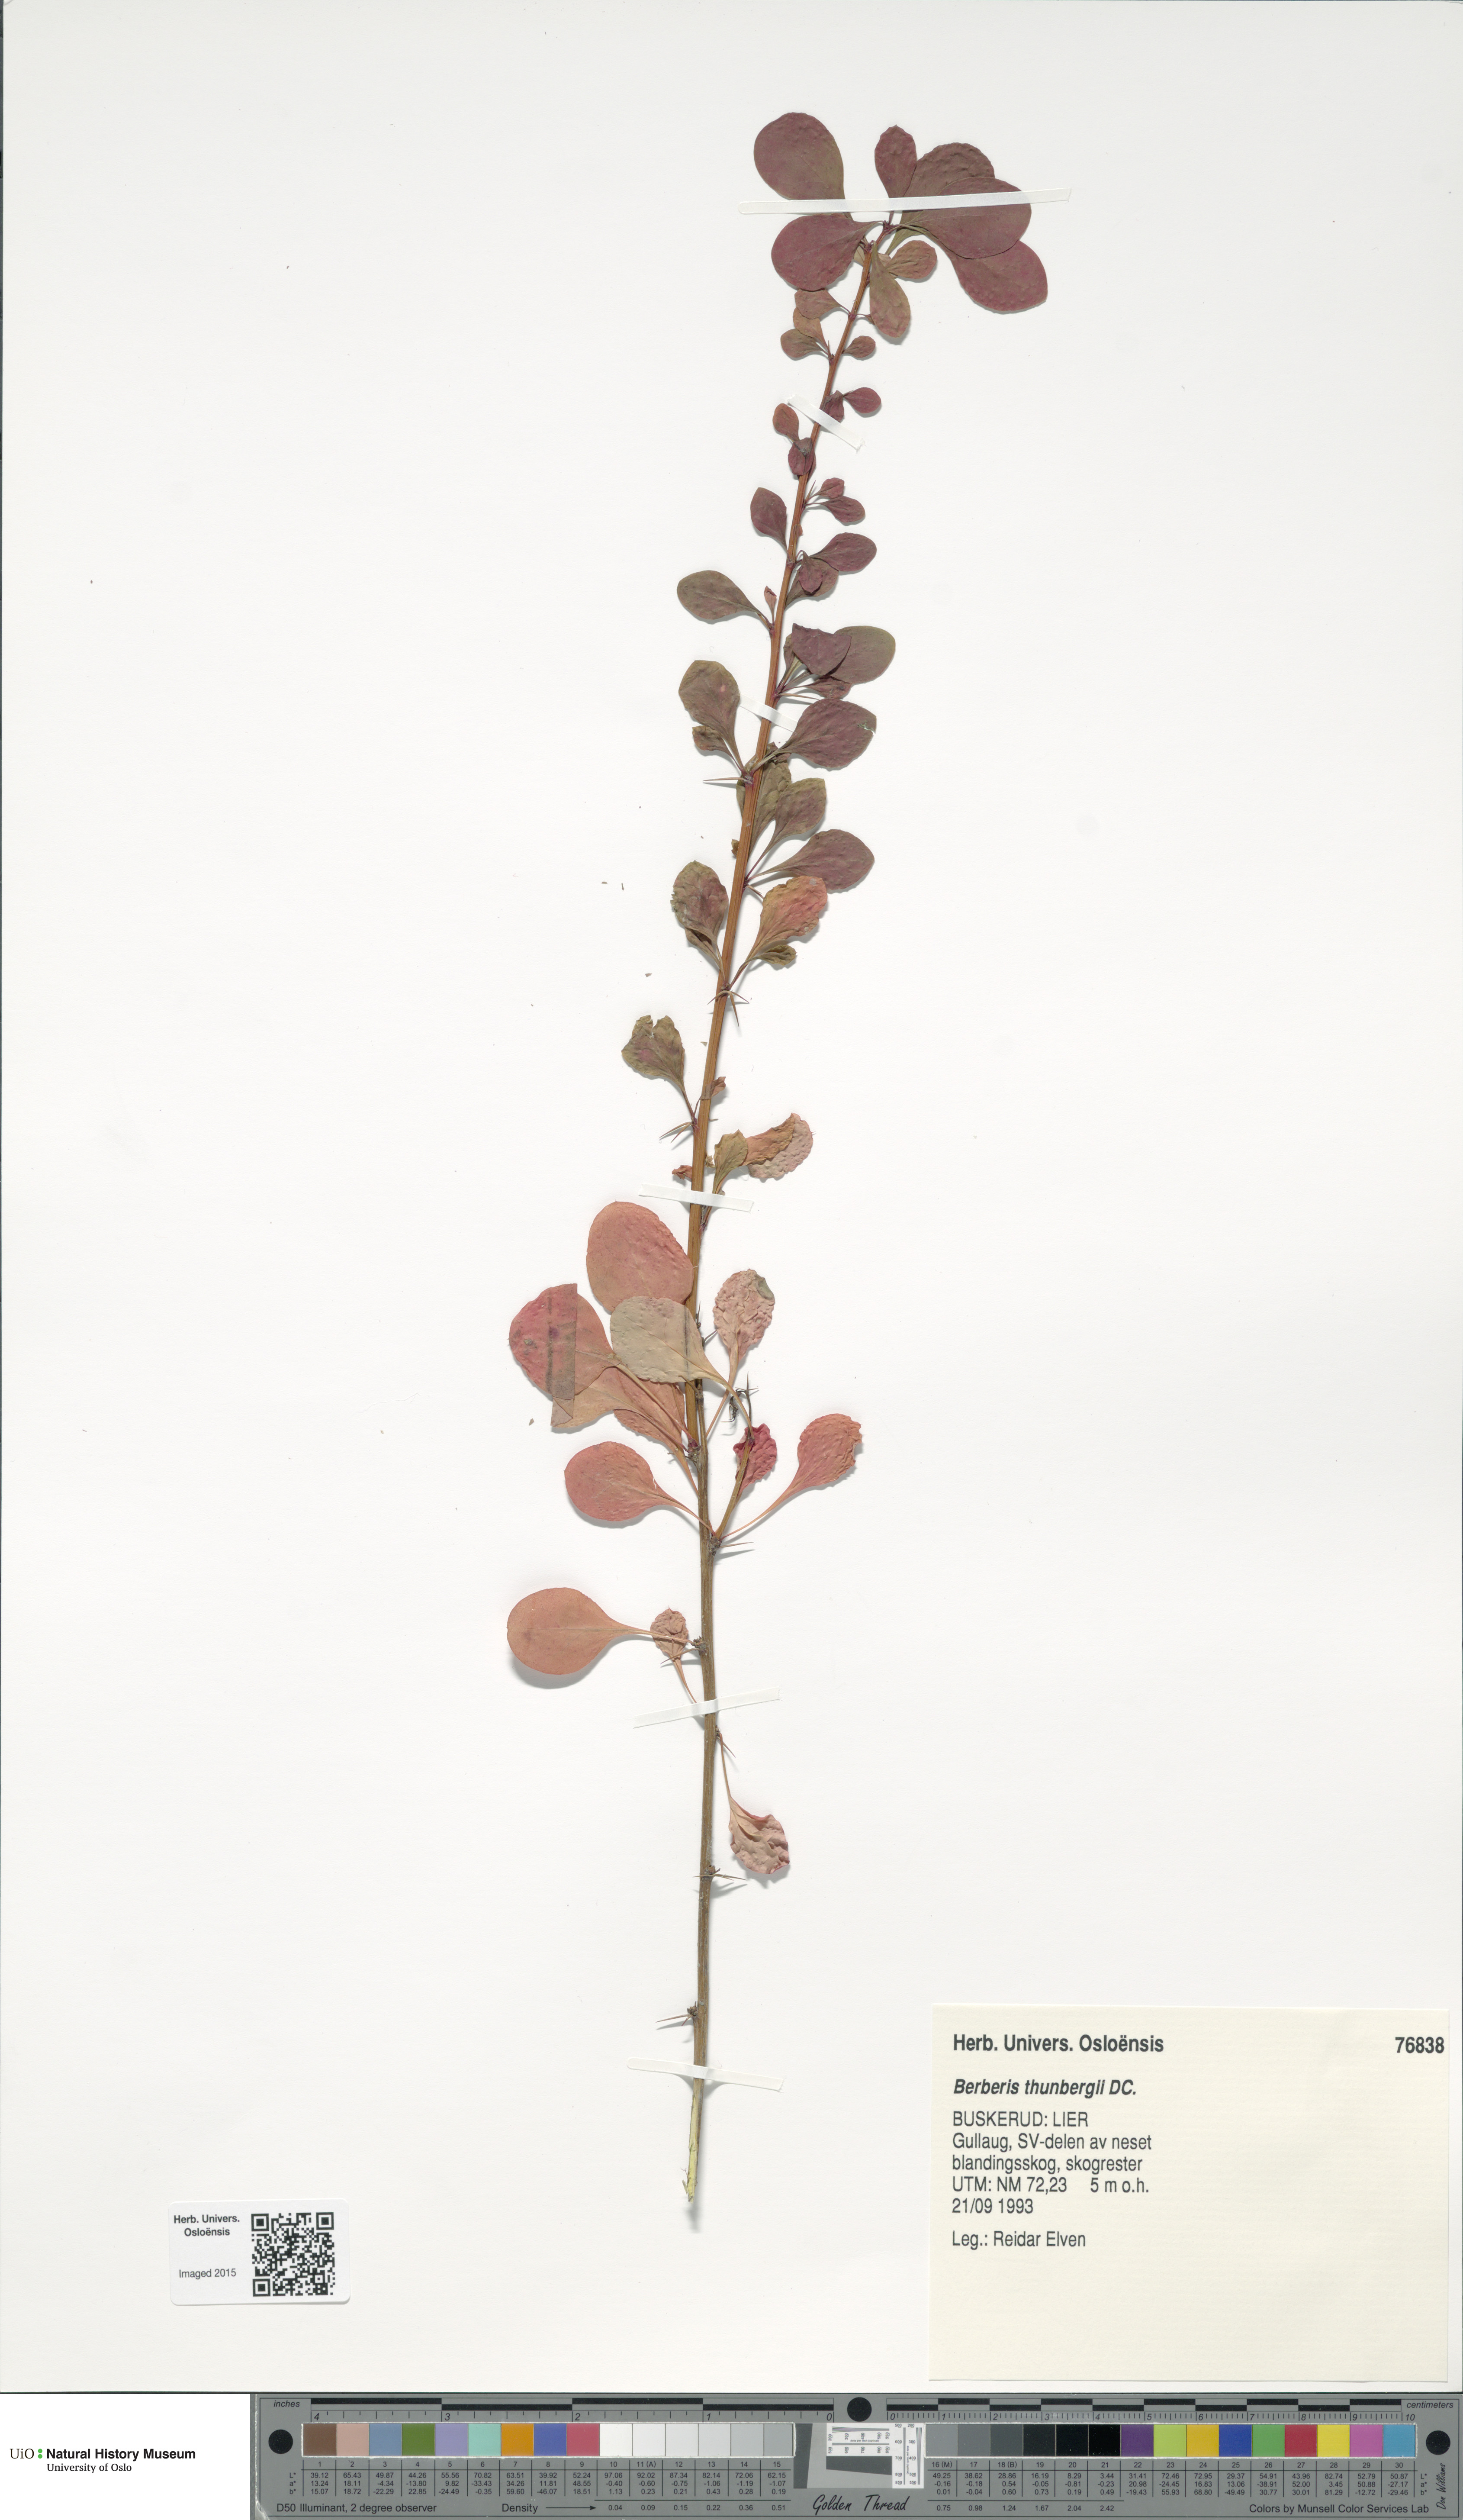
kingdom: Plantae
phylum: Tracheophyta
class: Magnoliopsida
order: Ranunculales
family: Berberidaceae
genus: Berberis
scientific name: Berberis thunbergii
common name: Japanese barberry
